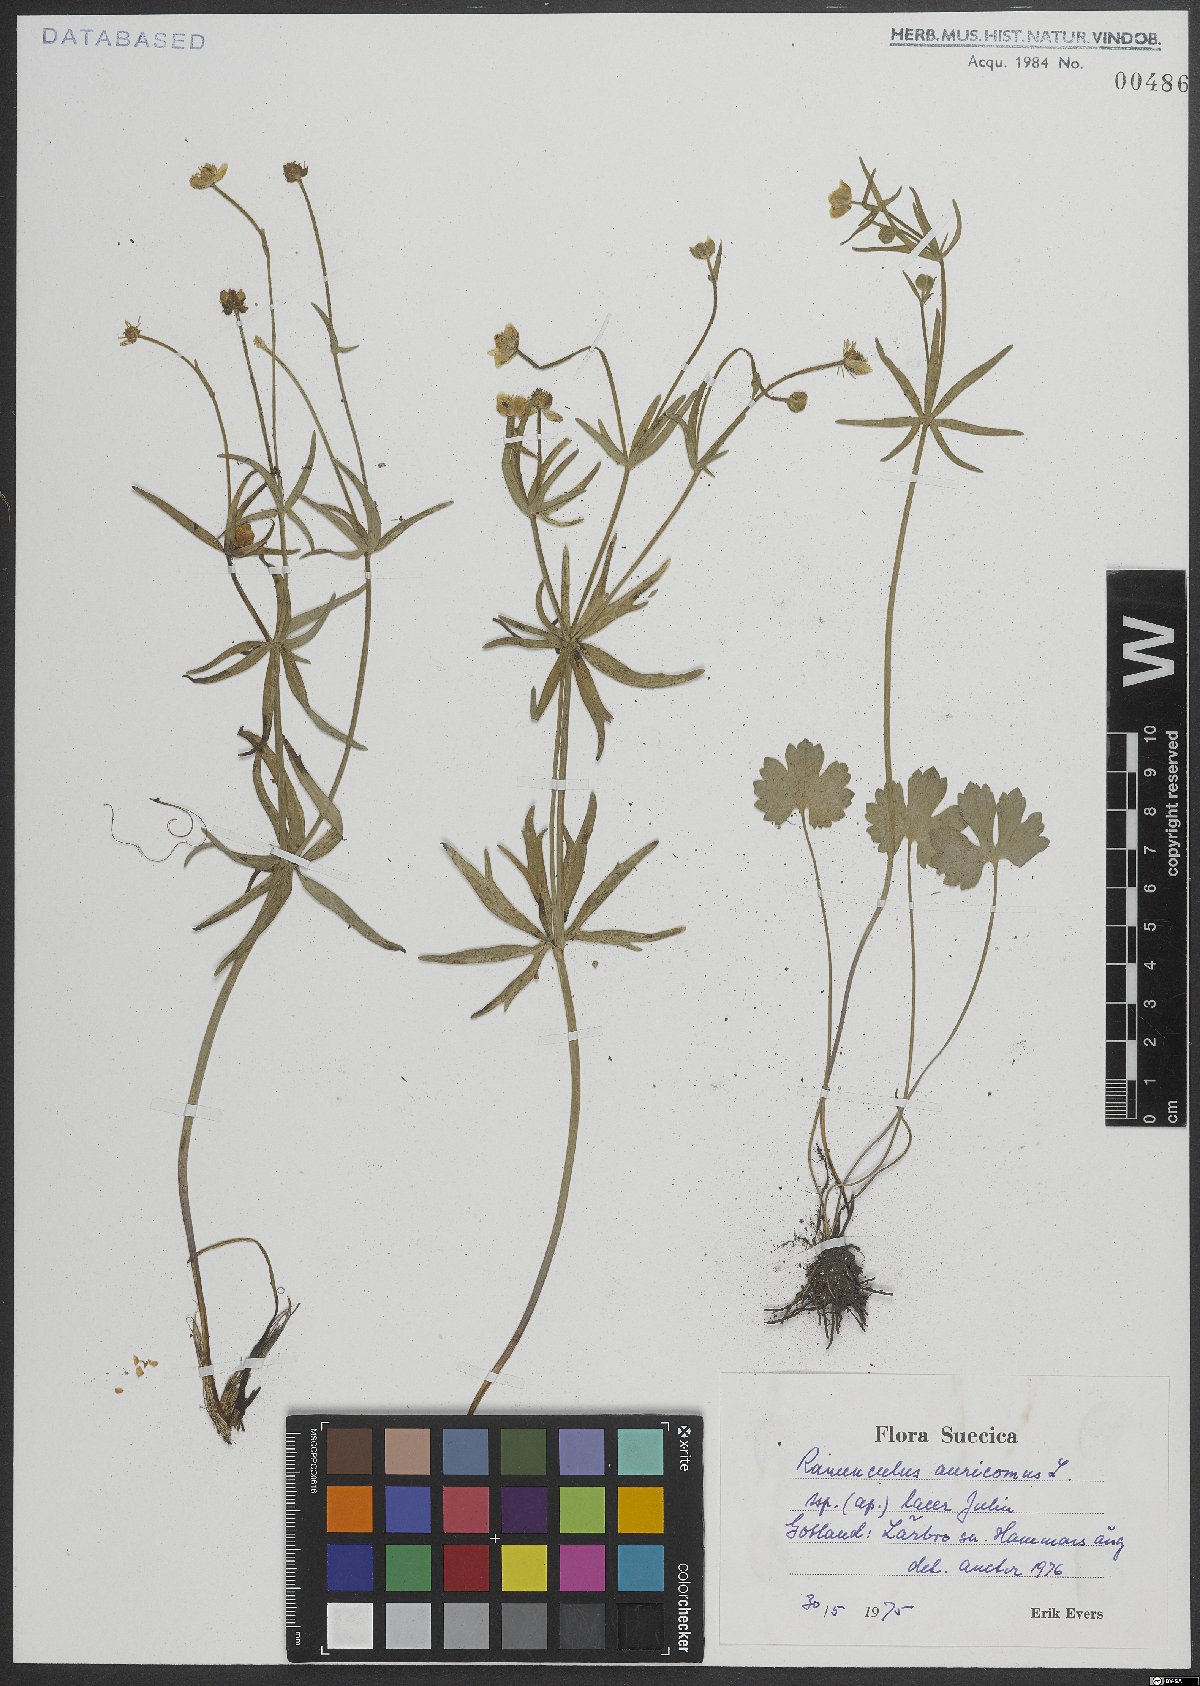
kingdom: Plantae
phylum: Tracheophyta
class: Magnoliopsida
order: Ranunculales
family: Ranunculaceae
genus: Ranunculus
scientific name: Ranunculus auricomus
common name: Goldilocks buttercup
